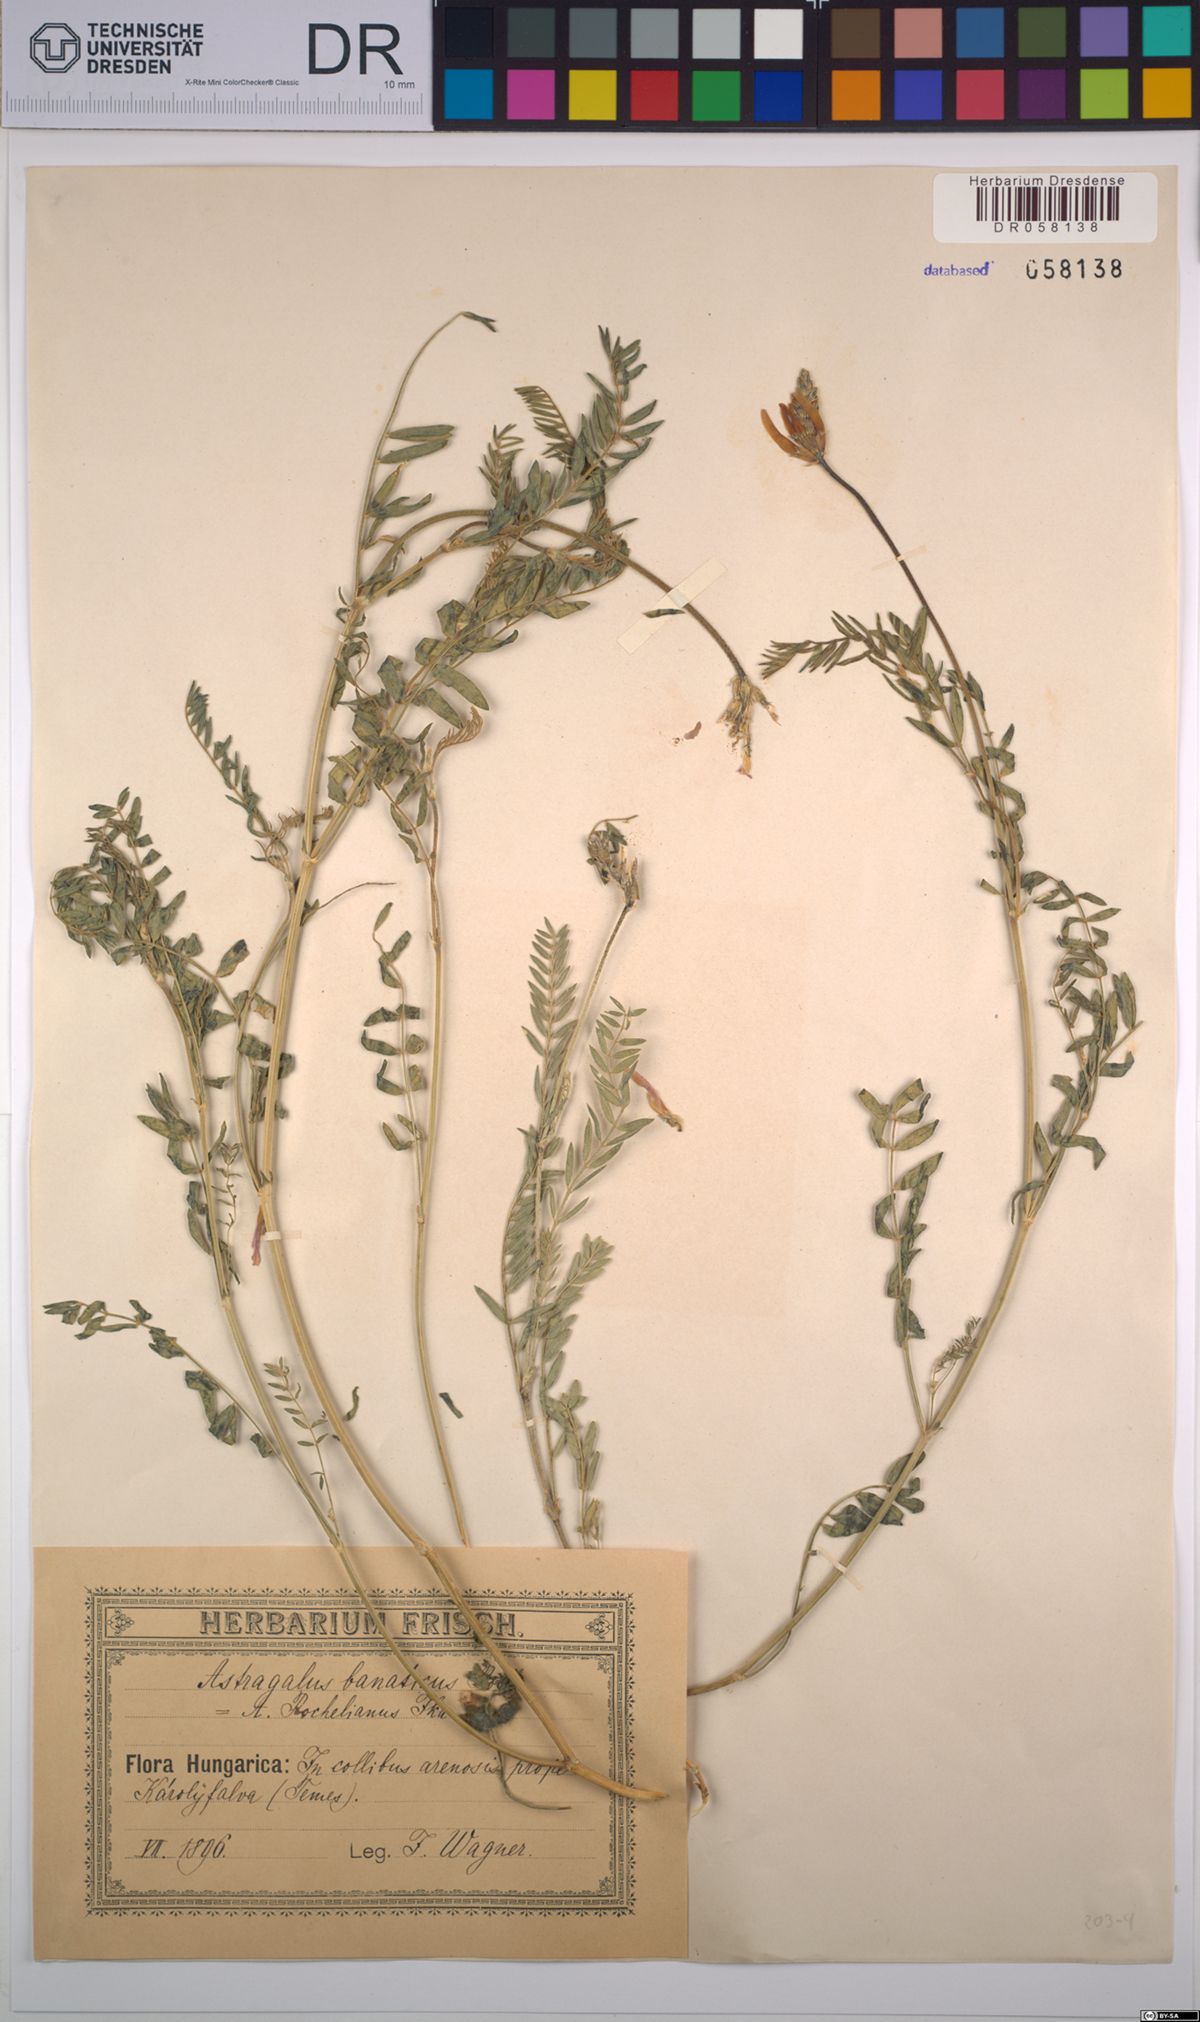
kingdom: Plantae
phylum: Tracheophyta
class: Magnoliopsida
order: Fabales
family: Fabaceae
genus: Astragalus
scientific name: Astragalus onobrychis
